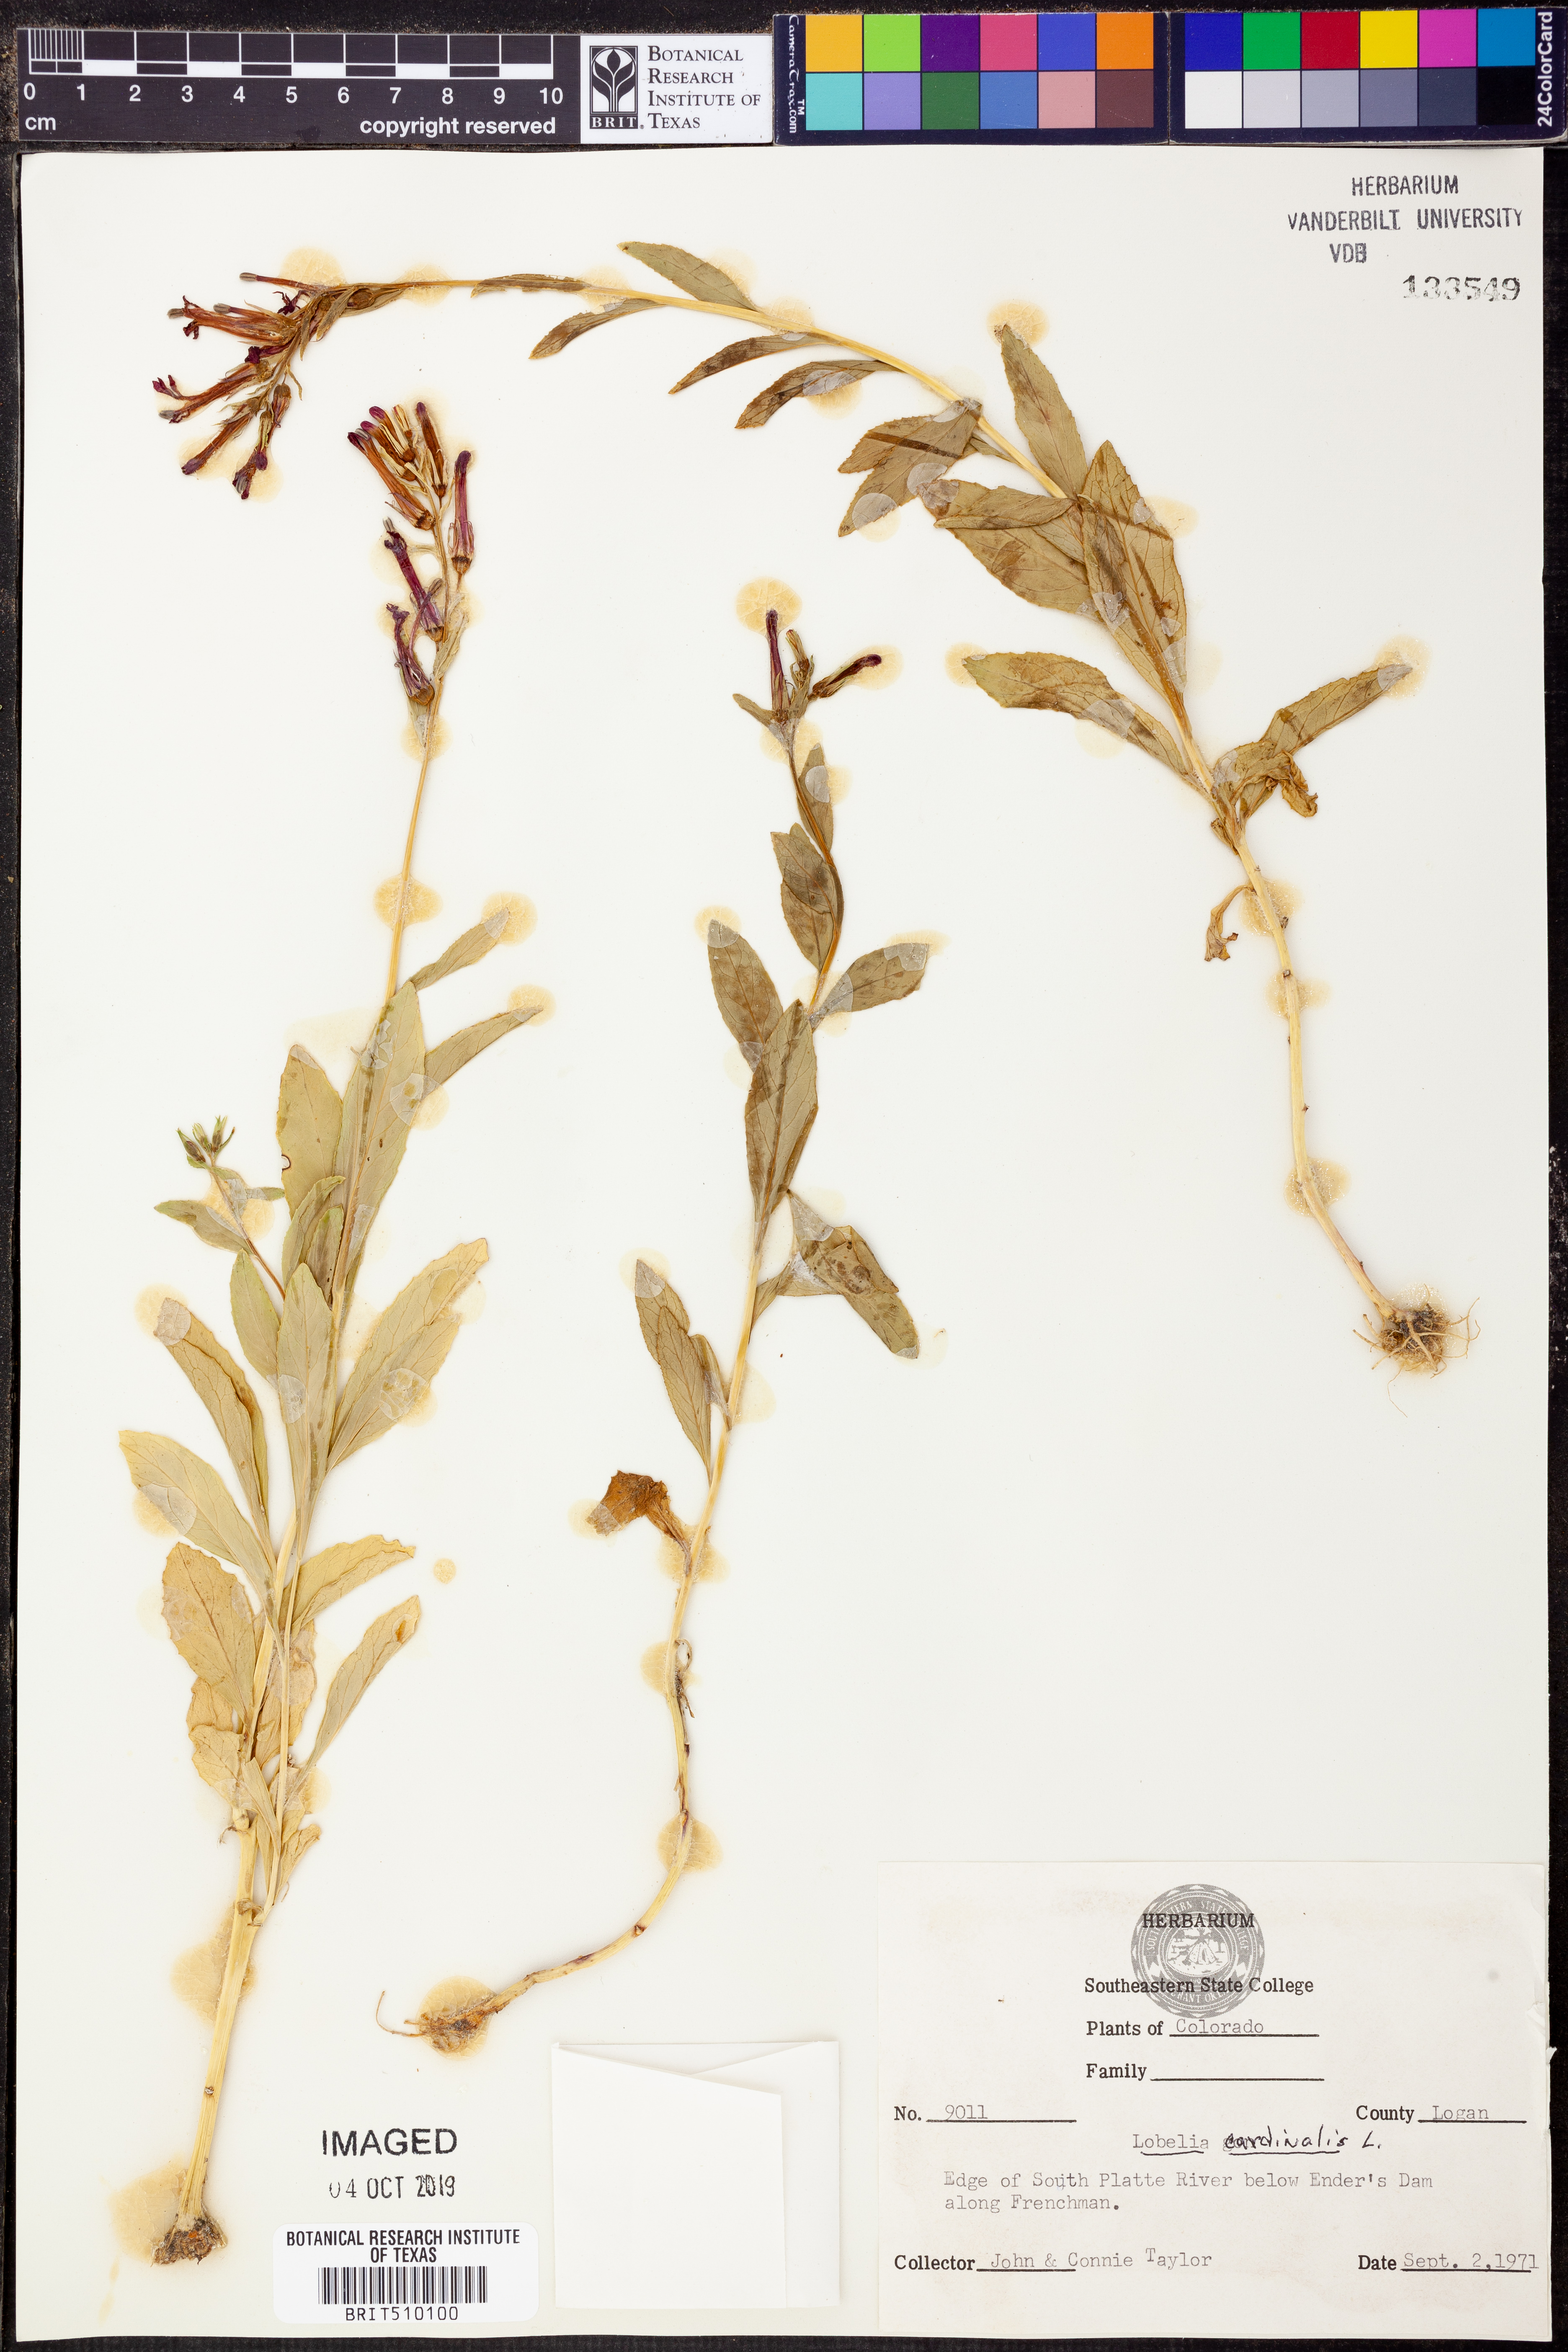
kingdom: Plantae
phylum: Tracheophyta
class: Magnoliopsida
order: Asterales
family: Campanulaceae
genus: Lobelia
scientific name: Lobelia cardinalis
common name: Cardinal flower
